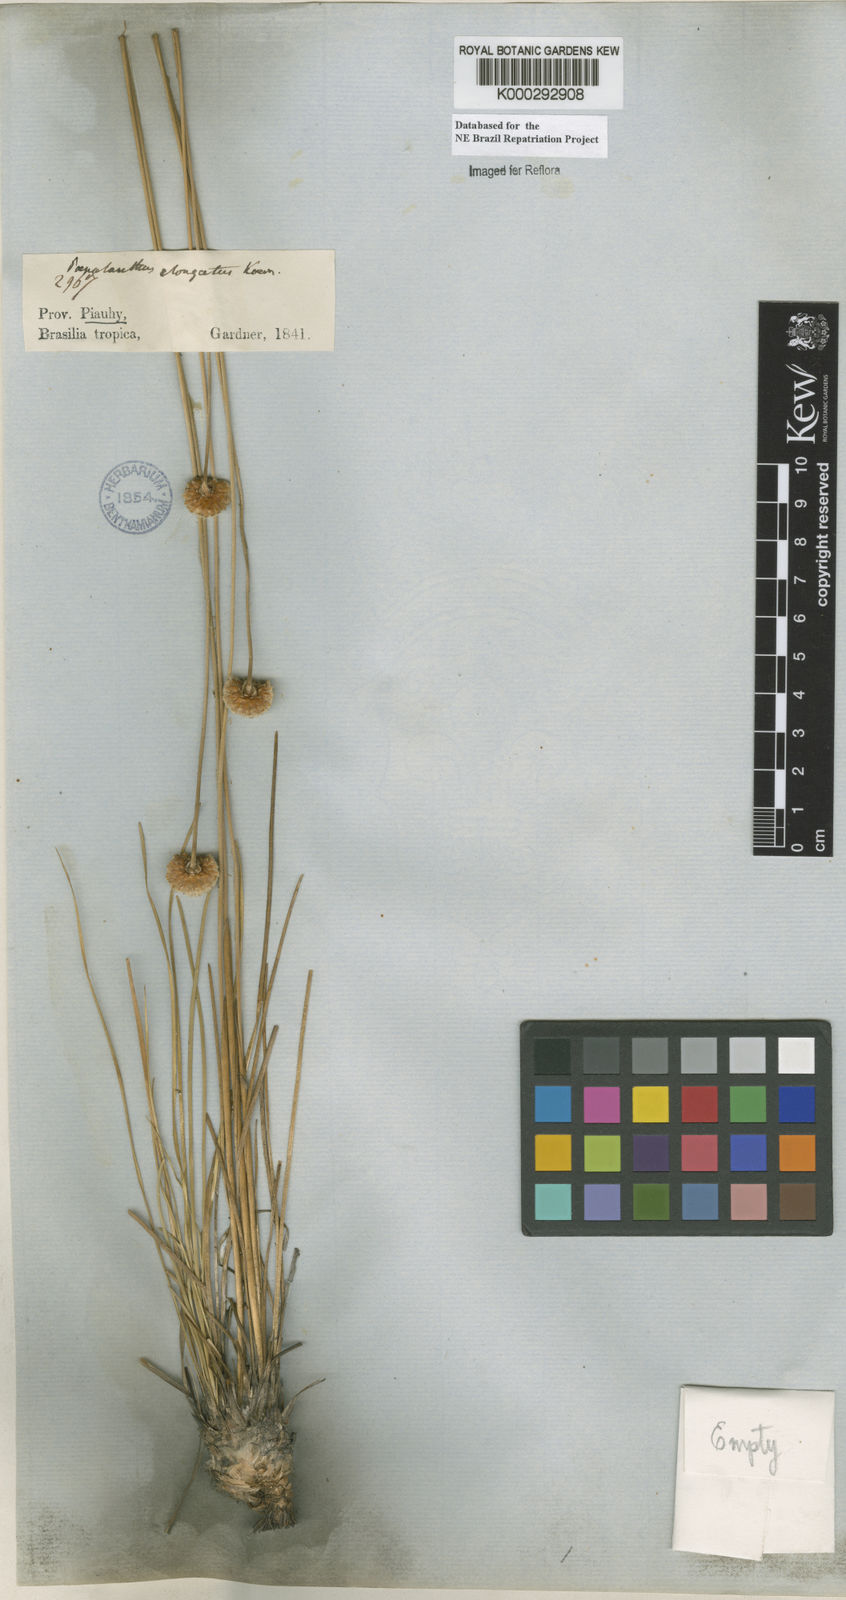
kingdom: Plantae
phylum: Tracheophyta
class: Liliopsida
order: Poales
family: Eriocaulaceae
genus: Paepalanthus
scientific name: Paepalanthus
